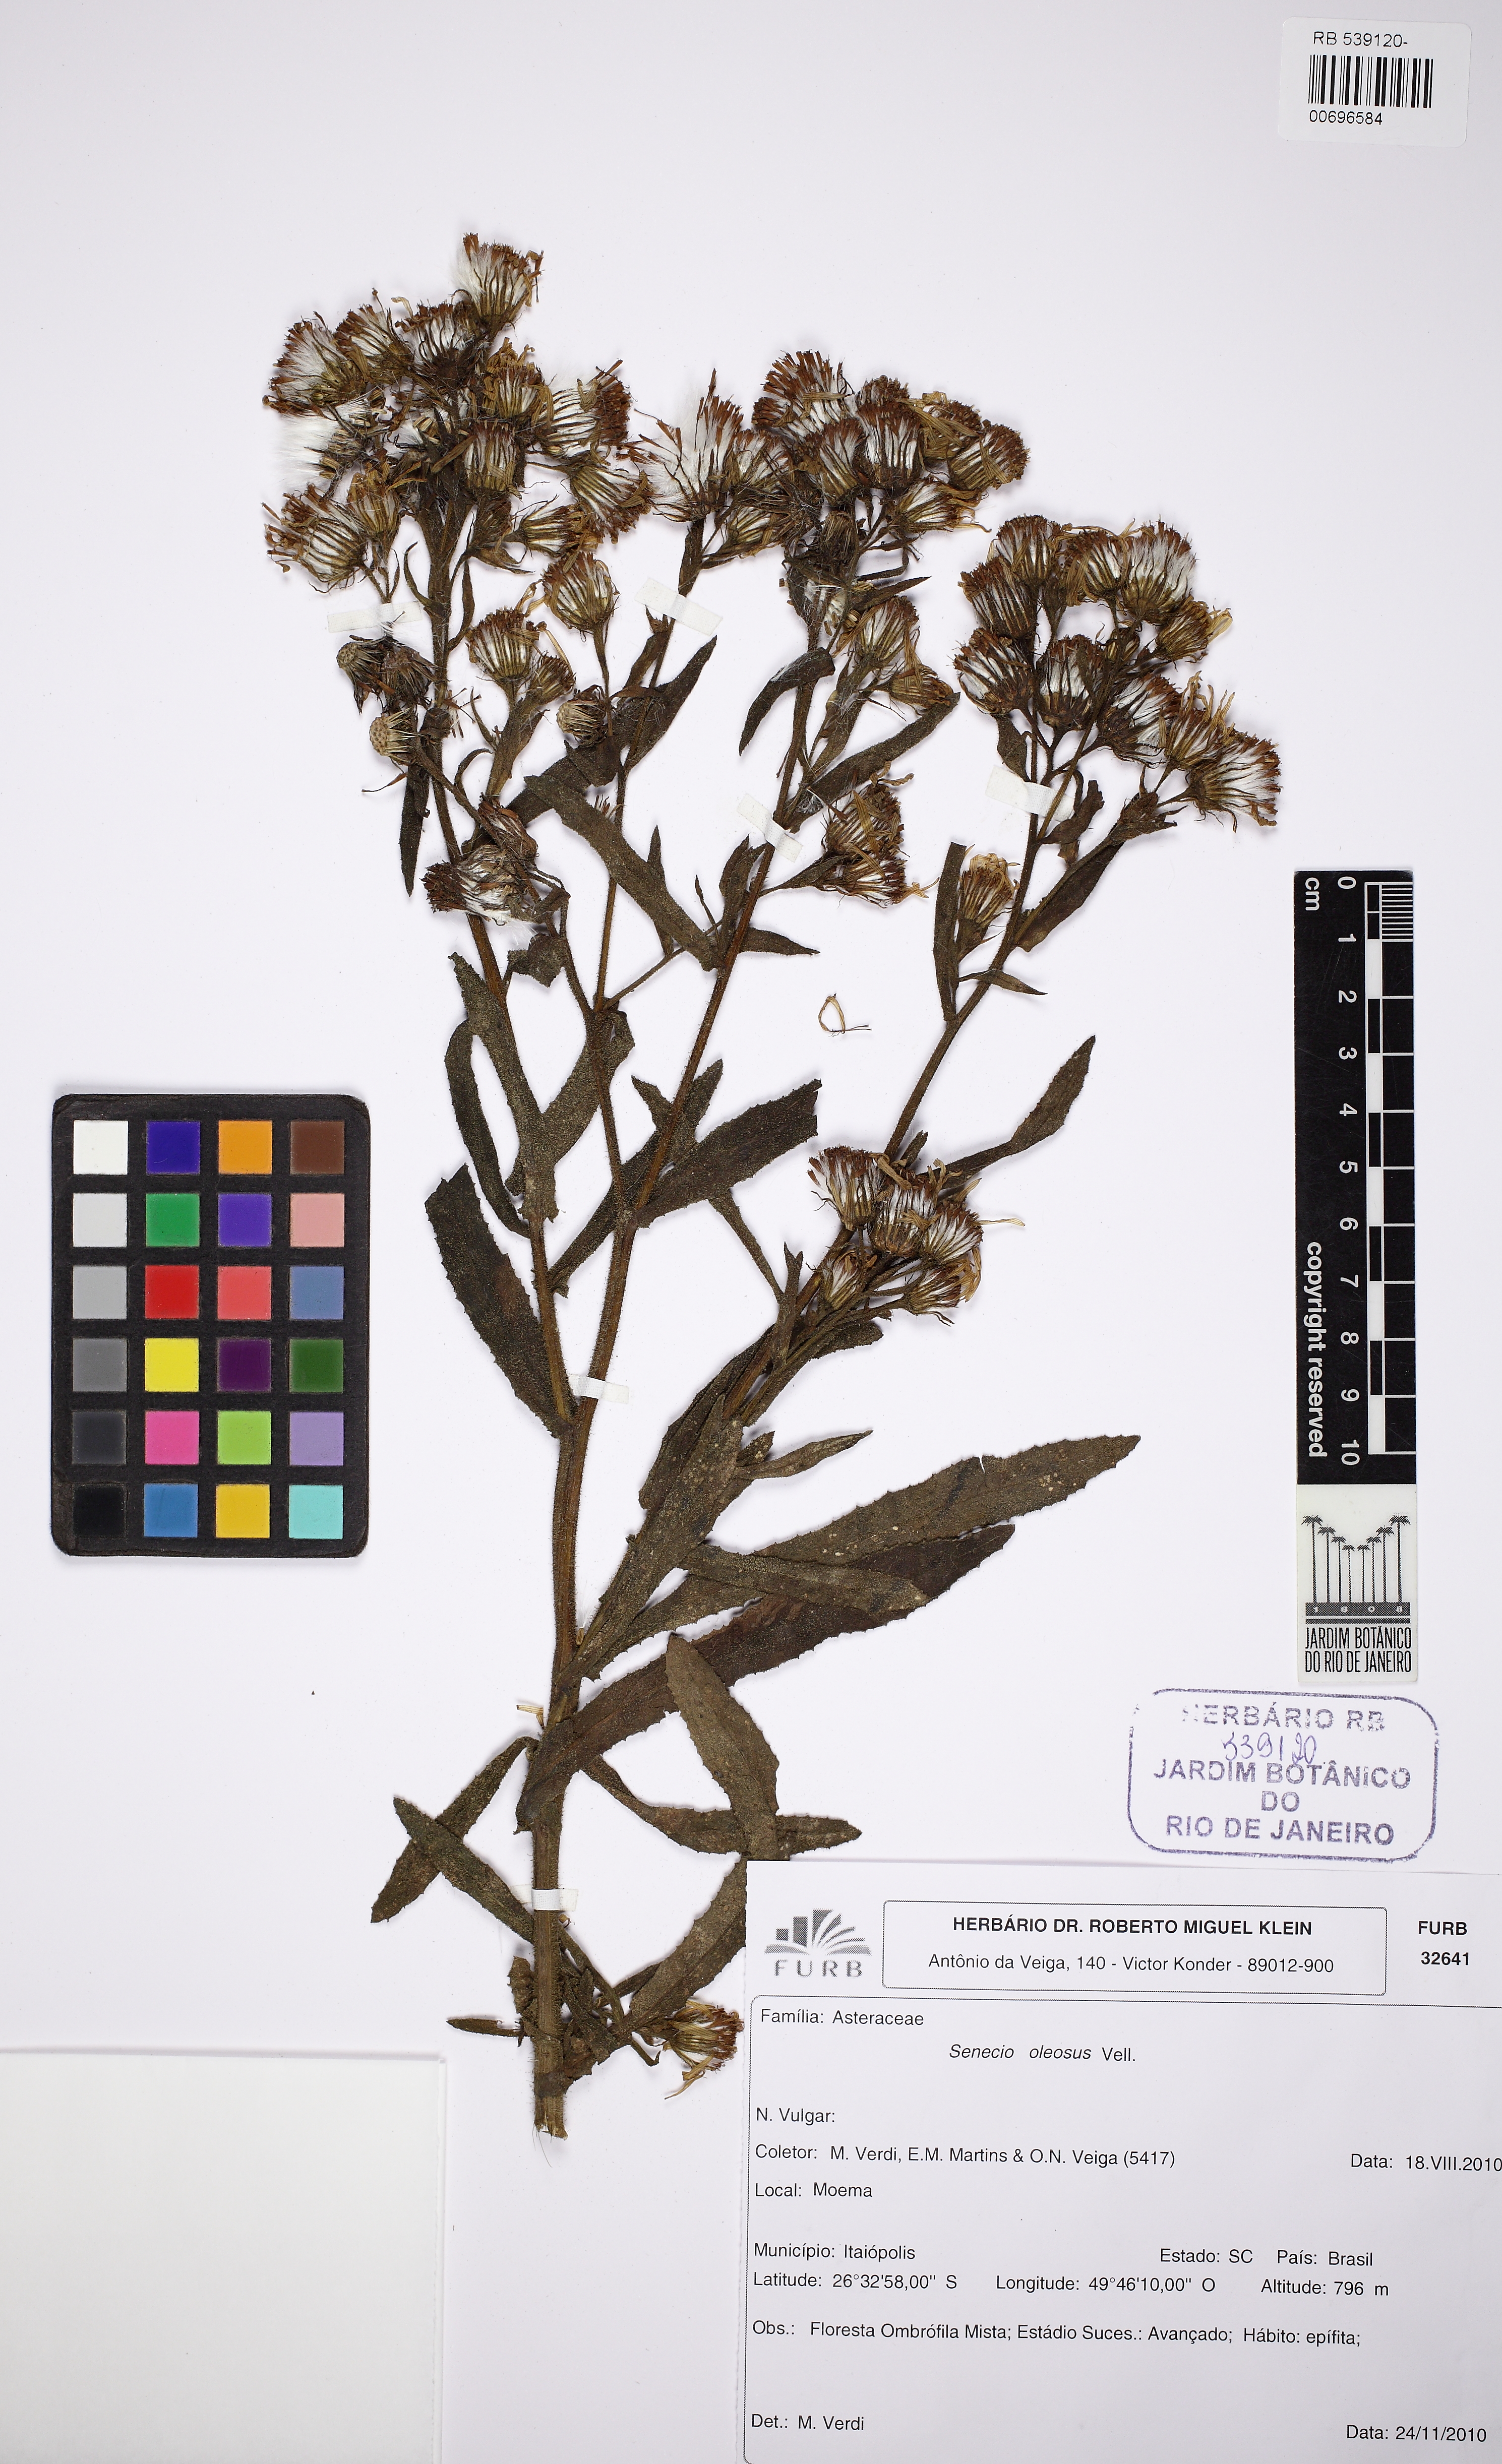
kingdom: Plantae
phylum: Tracheophyta
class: Magnoliopsida
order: Asterales
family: Asteraceae
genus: Senecio
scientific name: Senecio oleosus
